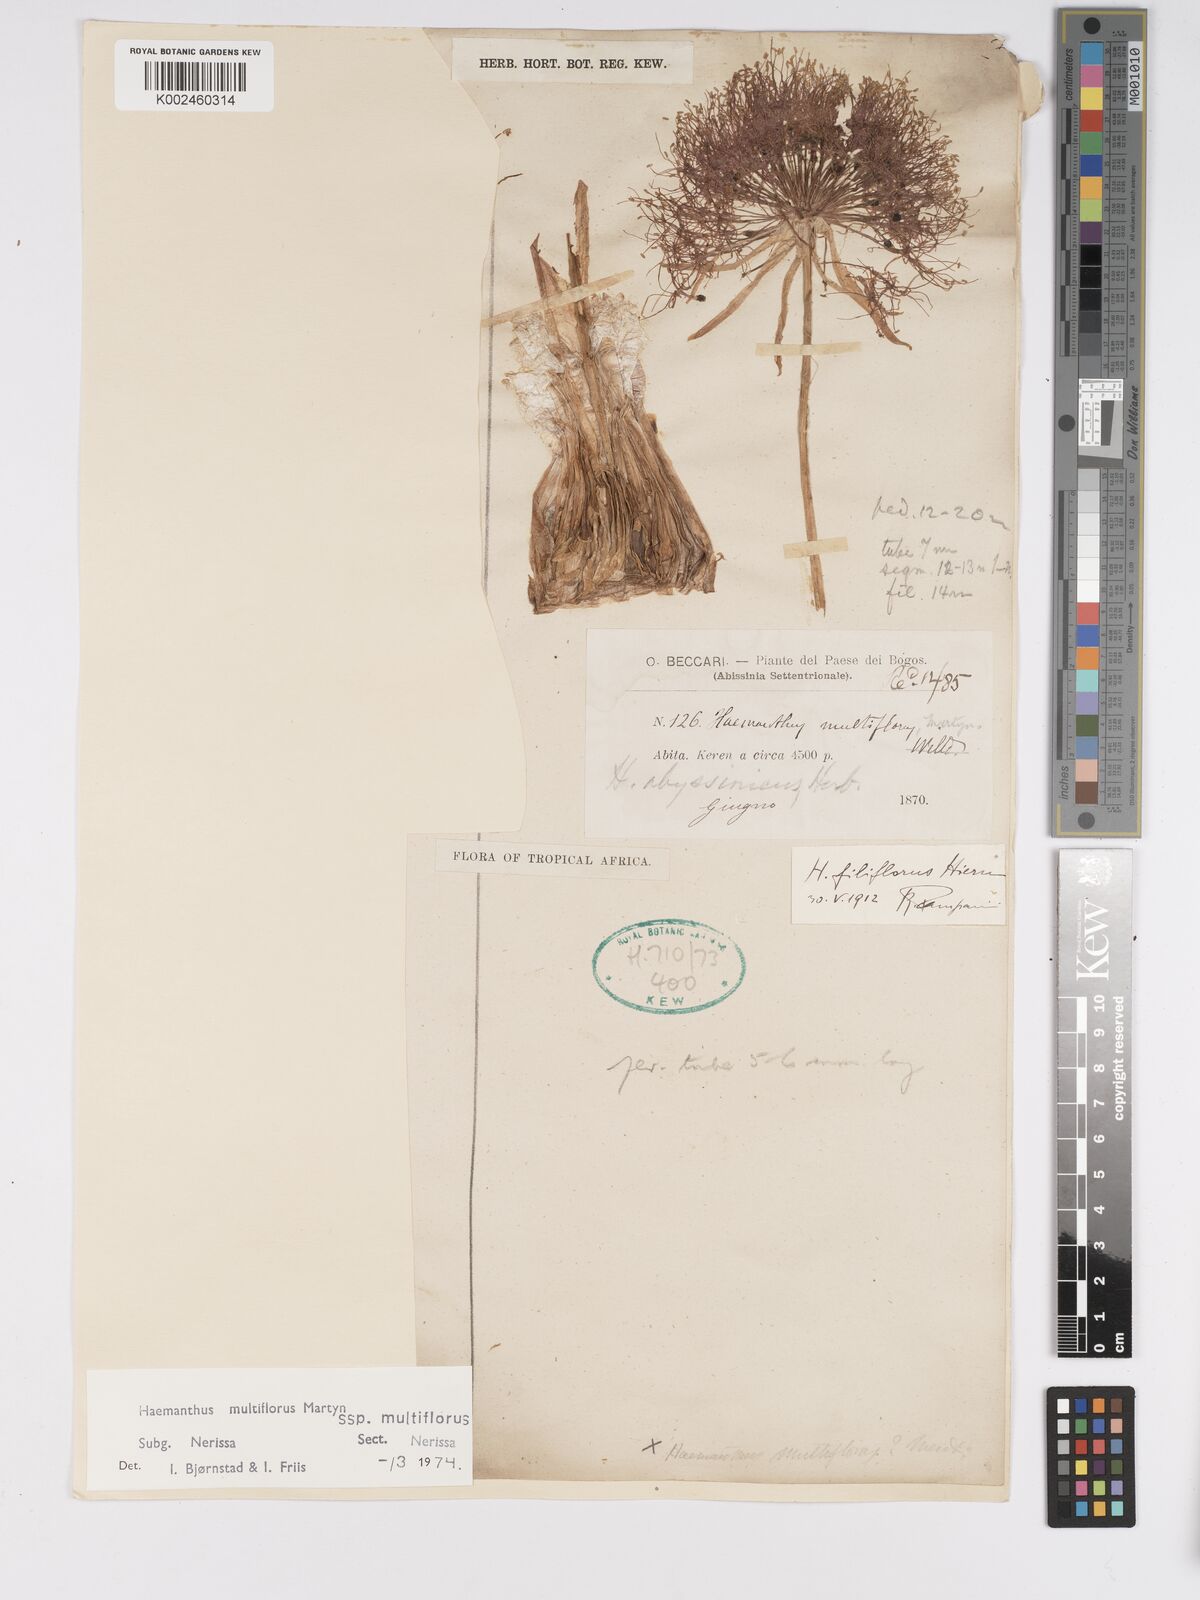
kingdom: Plantae
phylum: Tracheophyta
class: Liliopsida
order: Asparagales
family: Amaryllidaceae
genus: Scadoxus
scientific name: Scadoxus multiflorus
